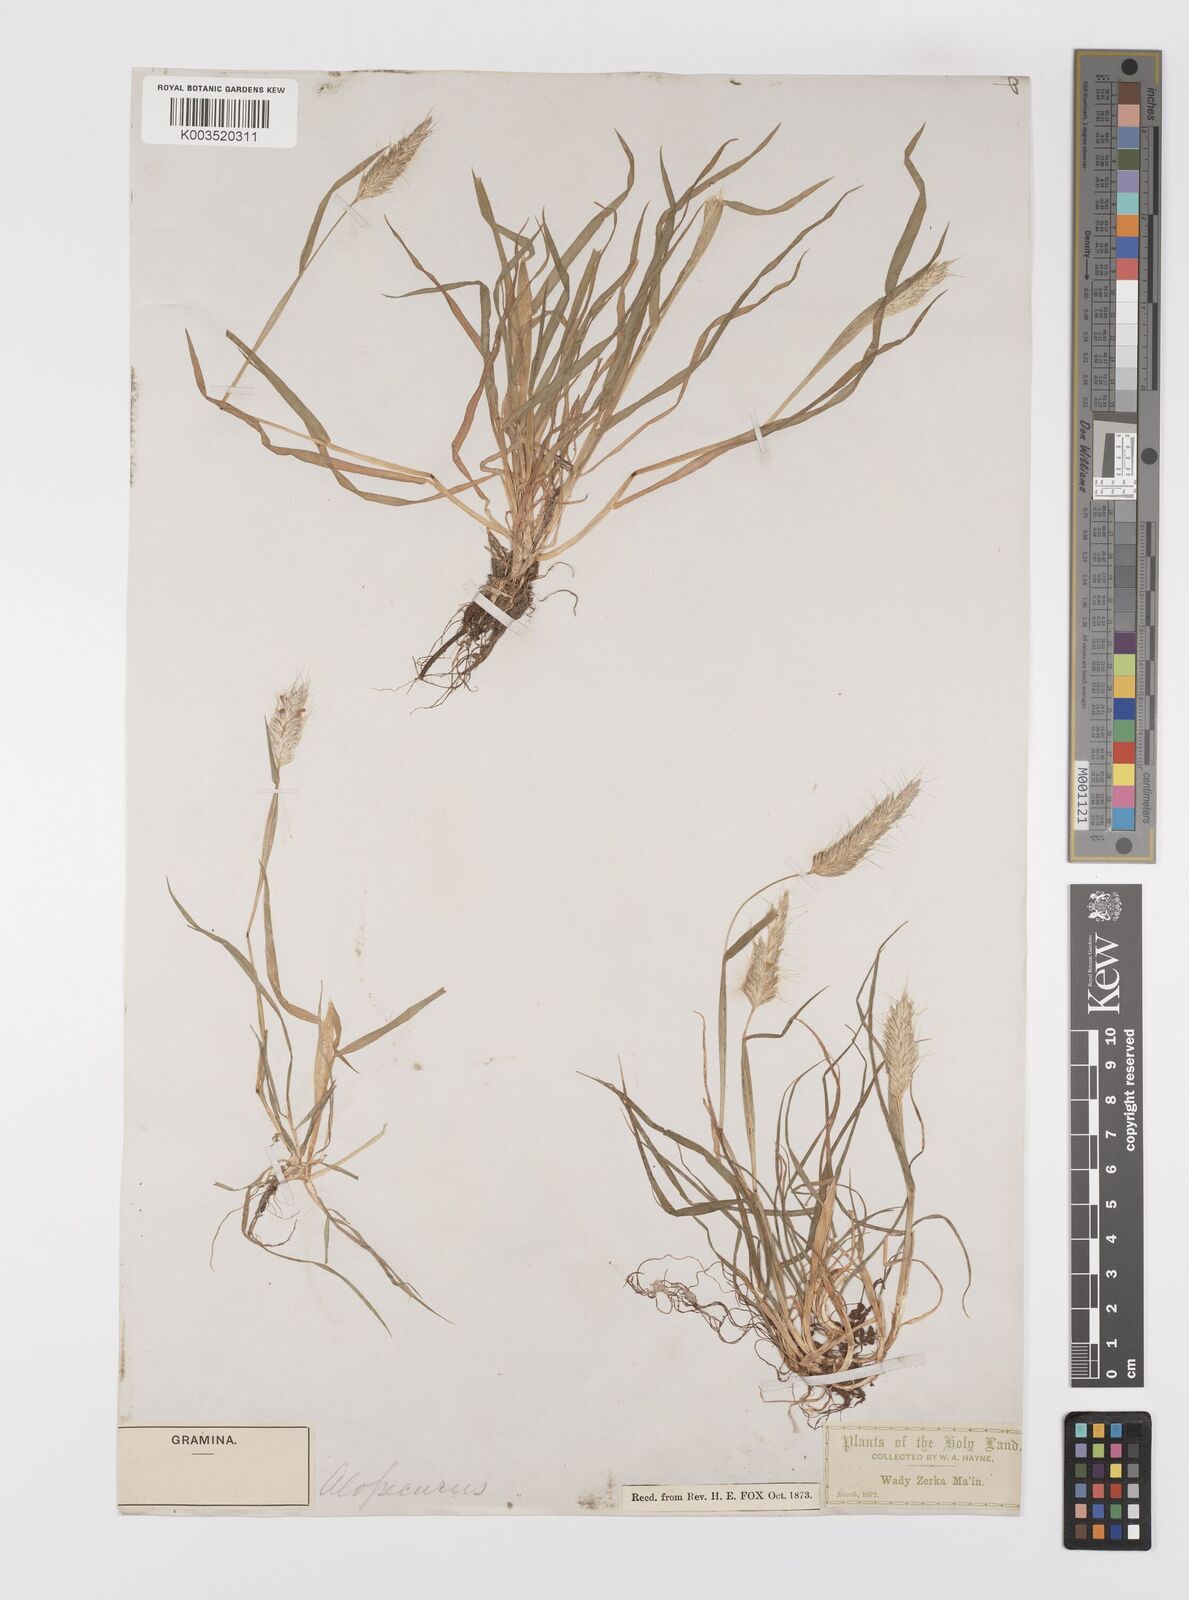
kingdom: Plantae
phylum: Tracheophyta
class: Liliopsida
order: Poales
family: Poaceae
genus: Alopecurus
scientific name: Alopecurus utriculatus
